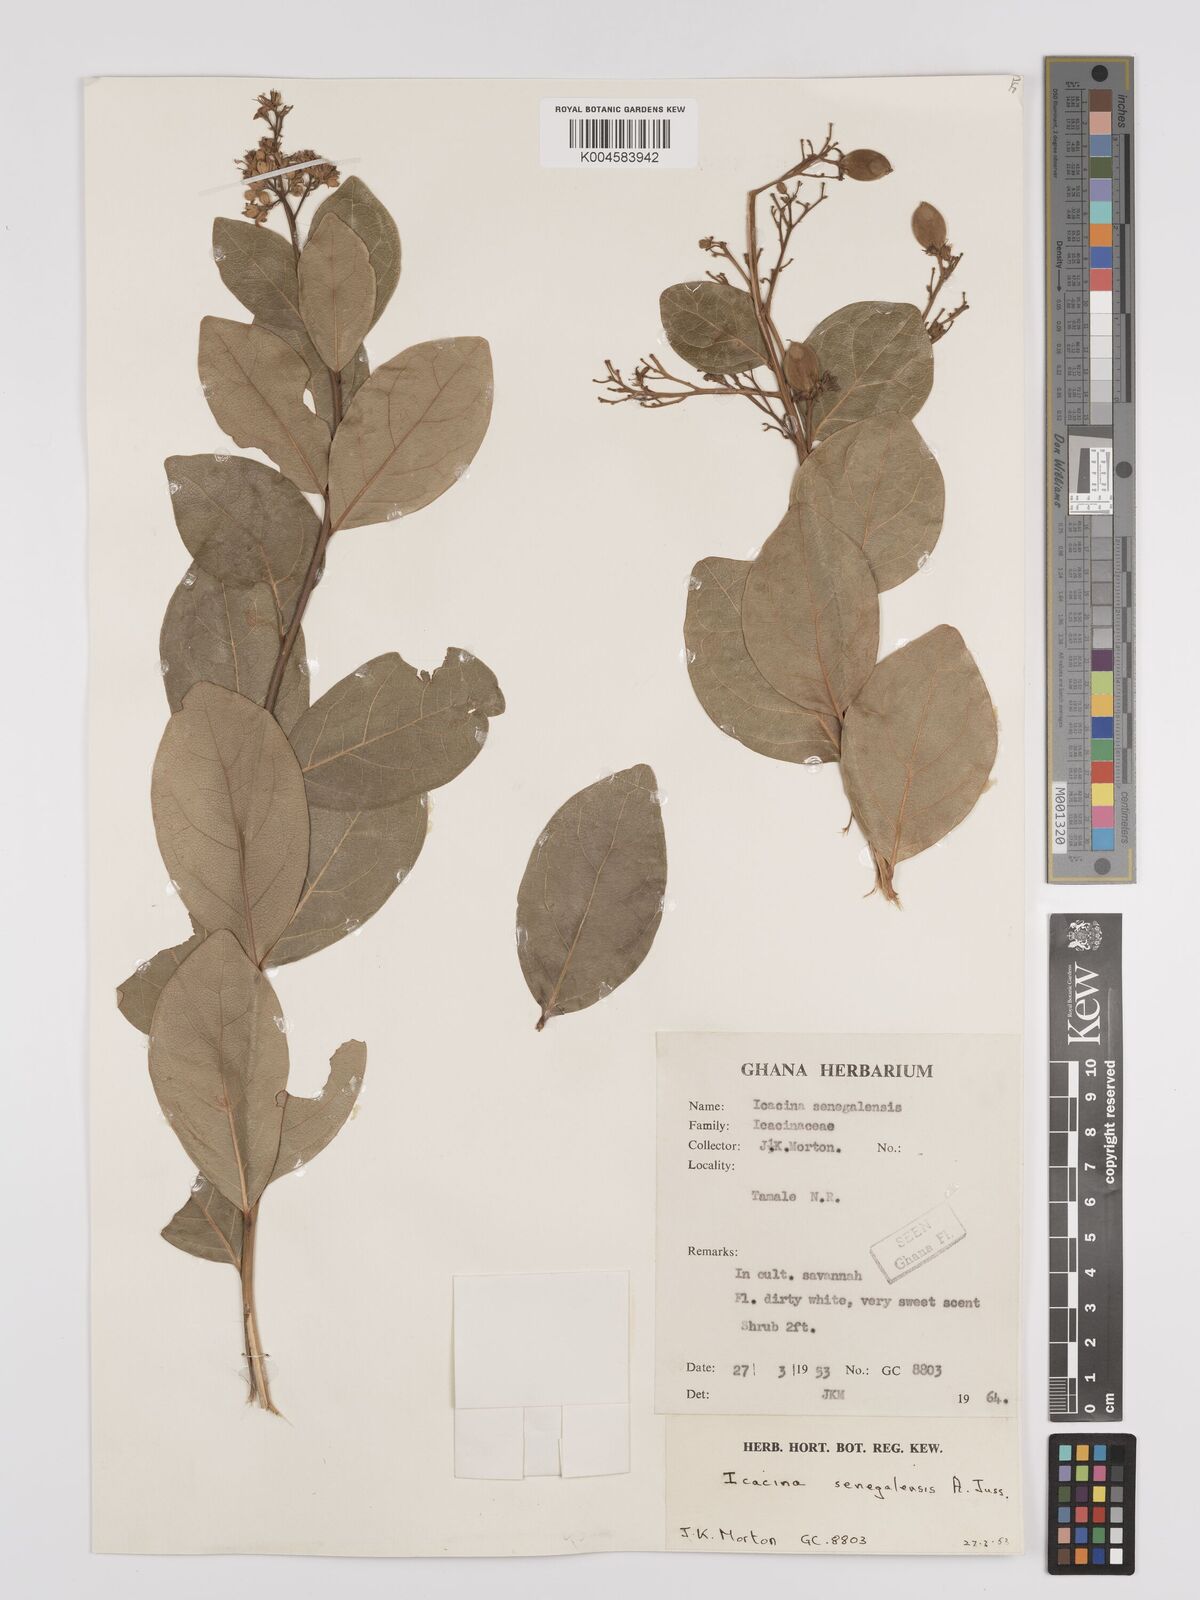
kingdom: Plantae
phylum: Tracheophyta
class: Magnoliopsida
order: Icacinales
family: Icacinaceae
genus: Icacina
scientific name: Icacina oliviformis
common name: False yam
